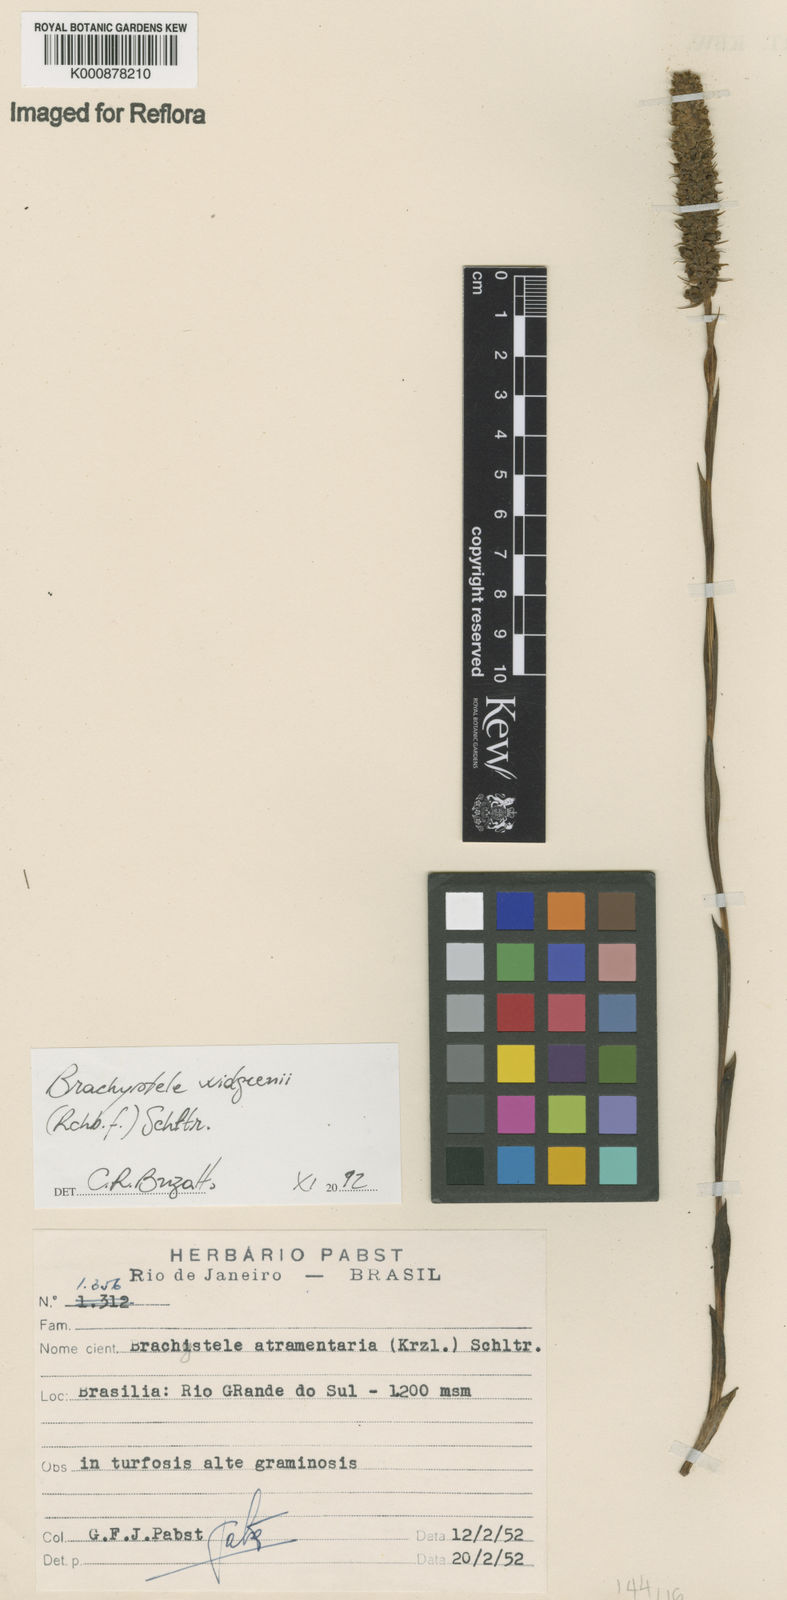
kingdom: Plantae
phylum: Tracheophyta
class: Liliopsida
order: Asparagales
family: Orchidaceae
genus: Brachystele
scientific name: Brachystele widgrenii
